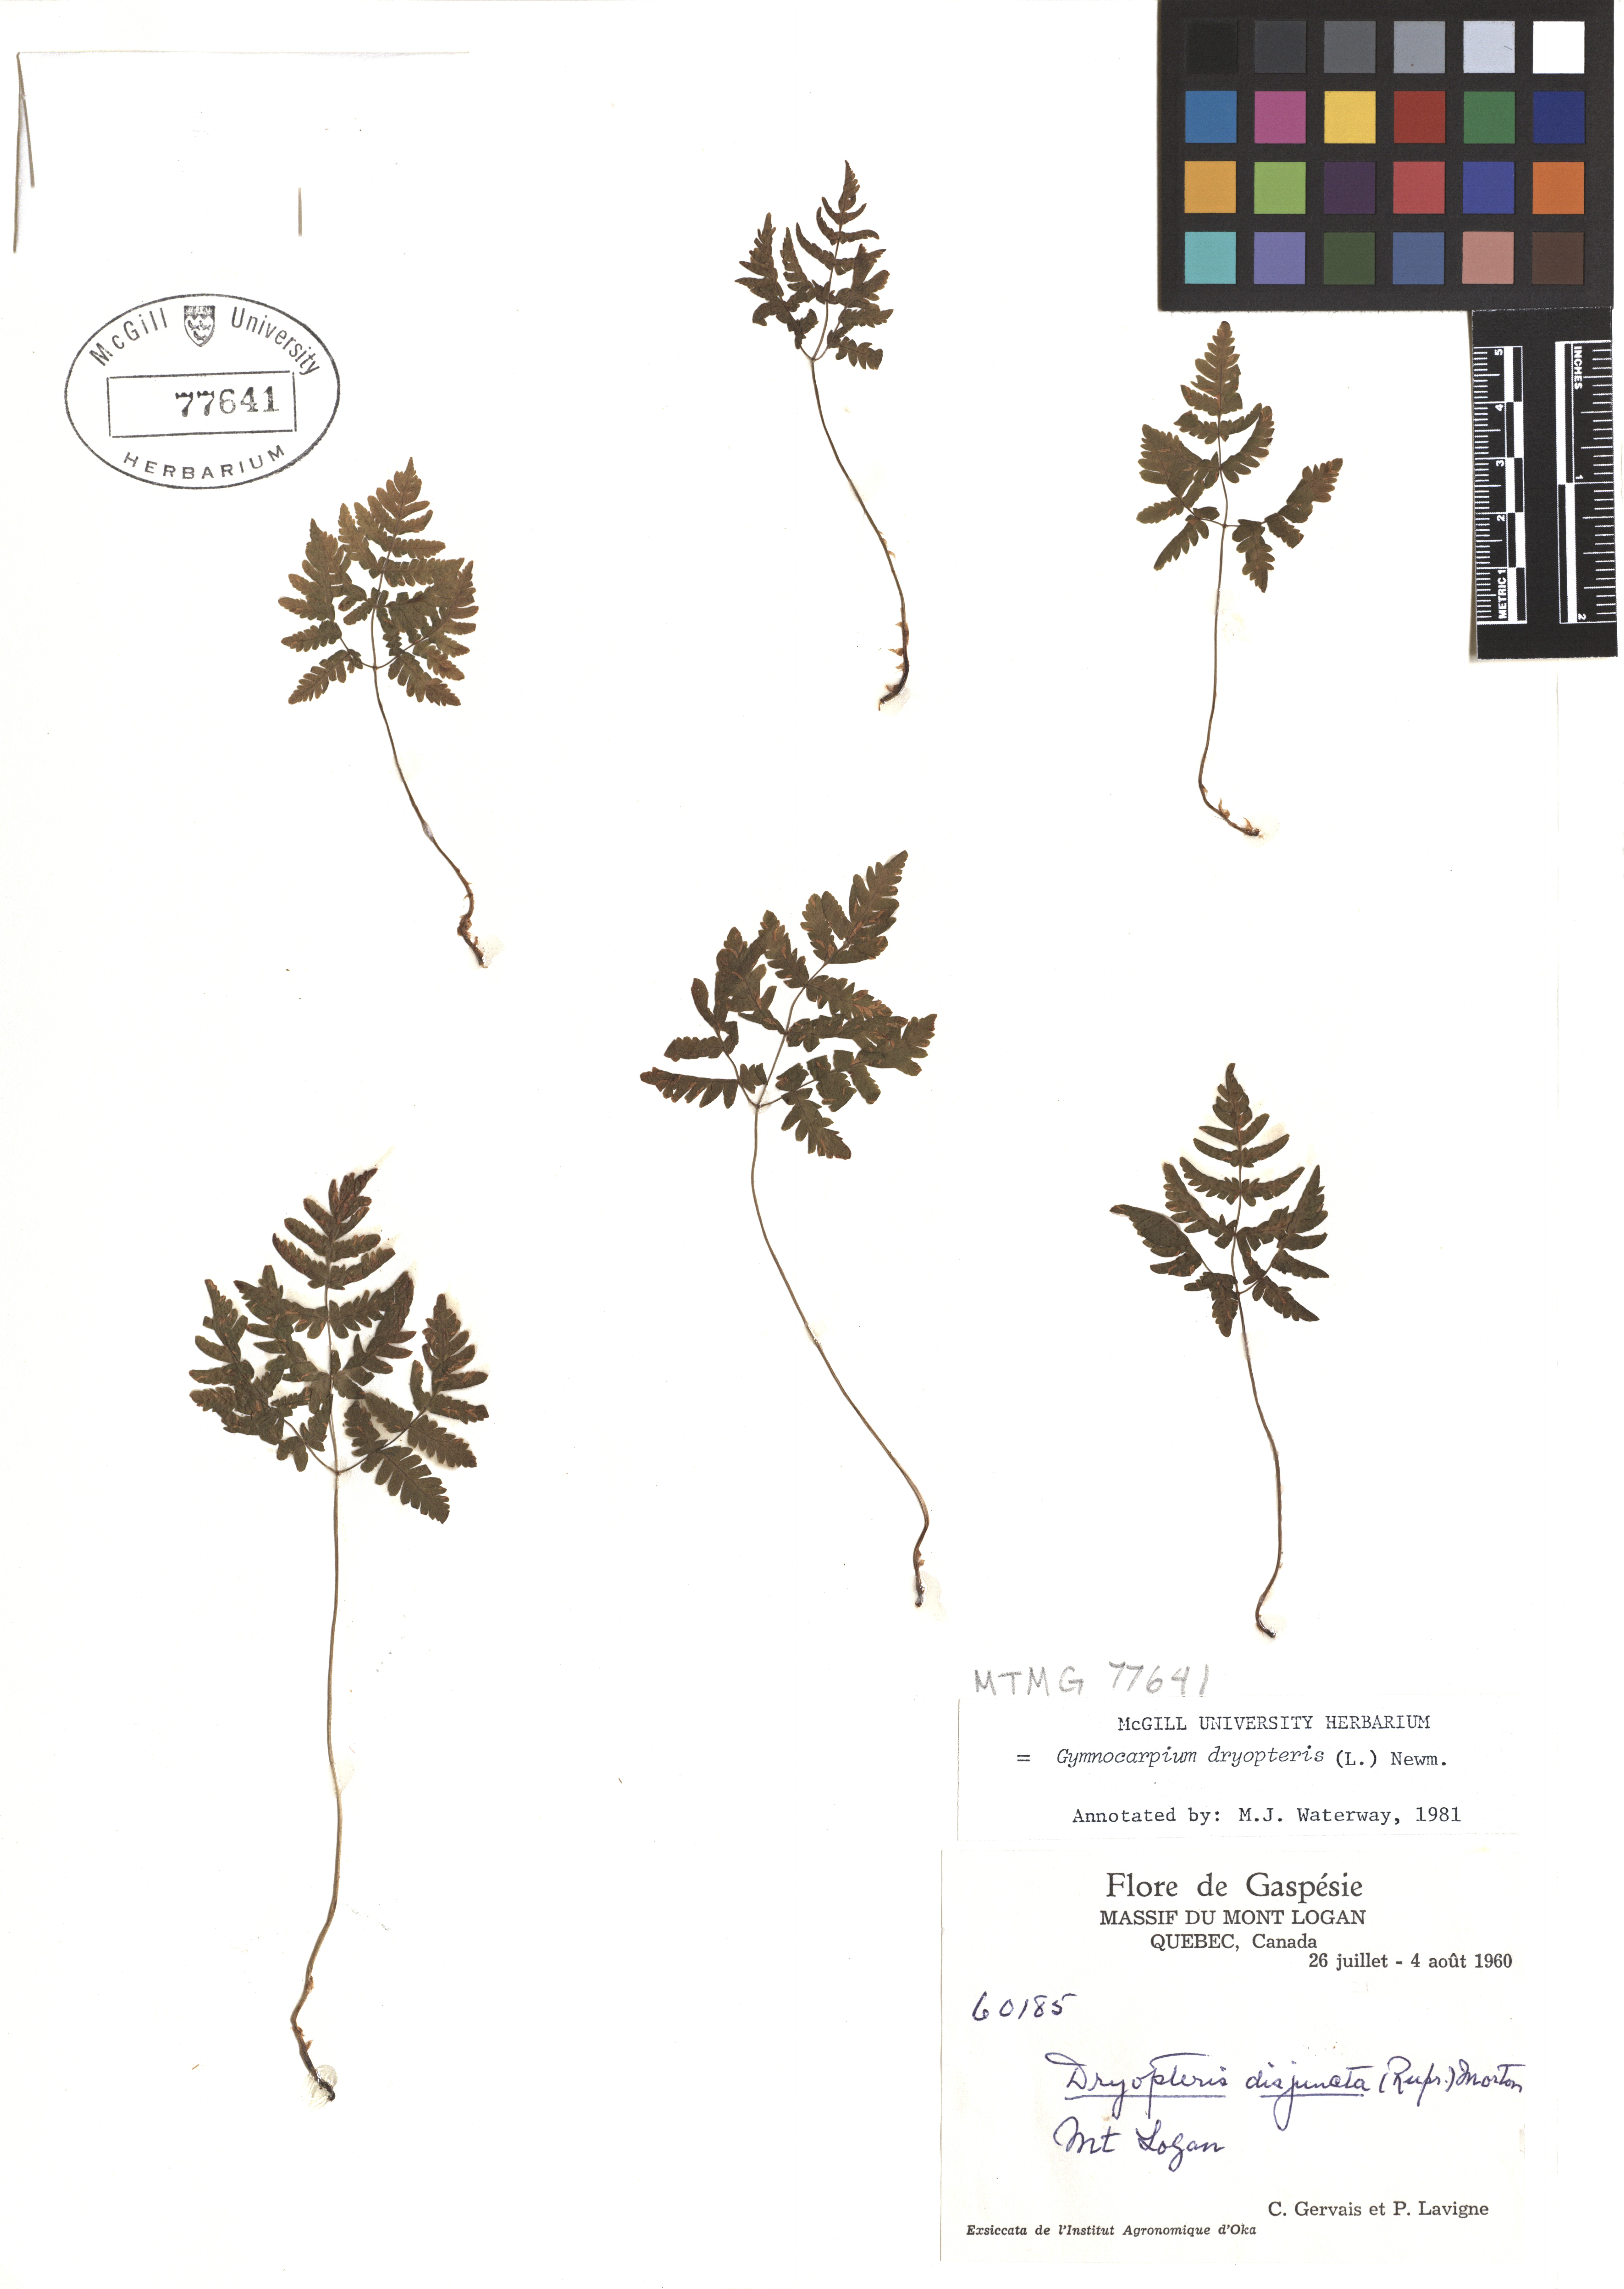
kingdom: Plantae
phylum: Tracheophyta
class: Polypodiopsida
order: Polypodiales
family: Cystopteridaceae
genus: Gymnocarpium
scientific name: Gymnocarpium dryopteris
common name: Oak fern
